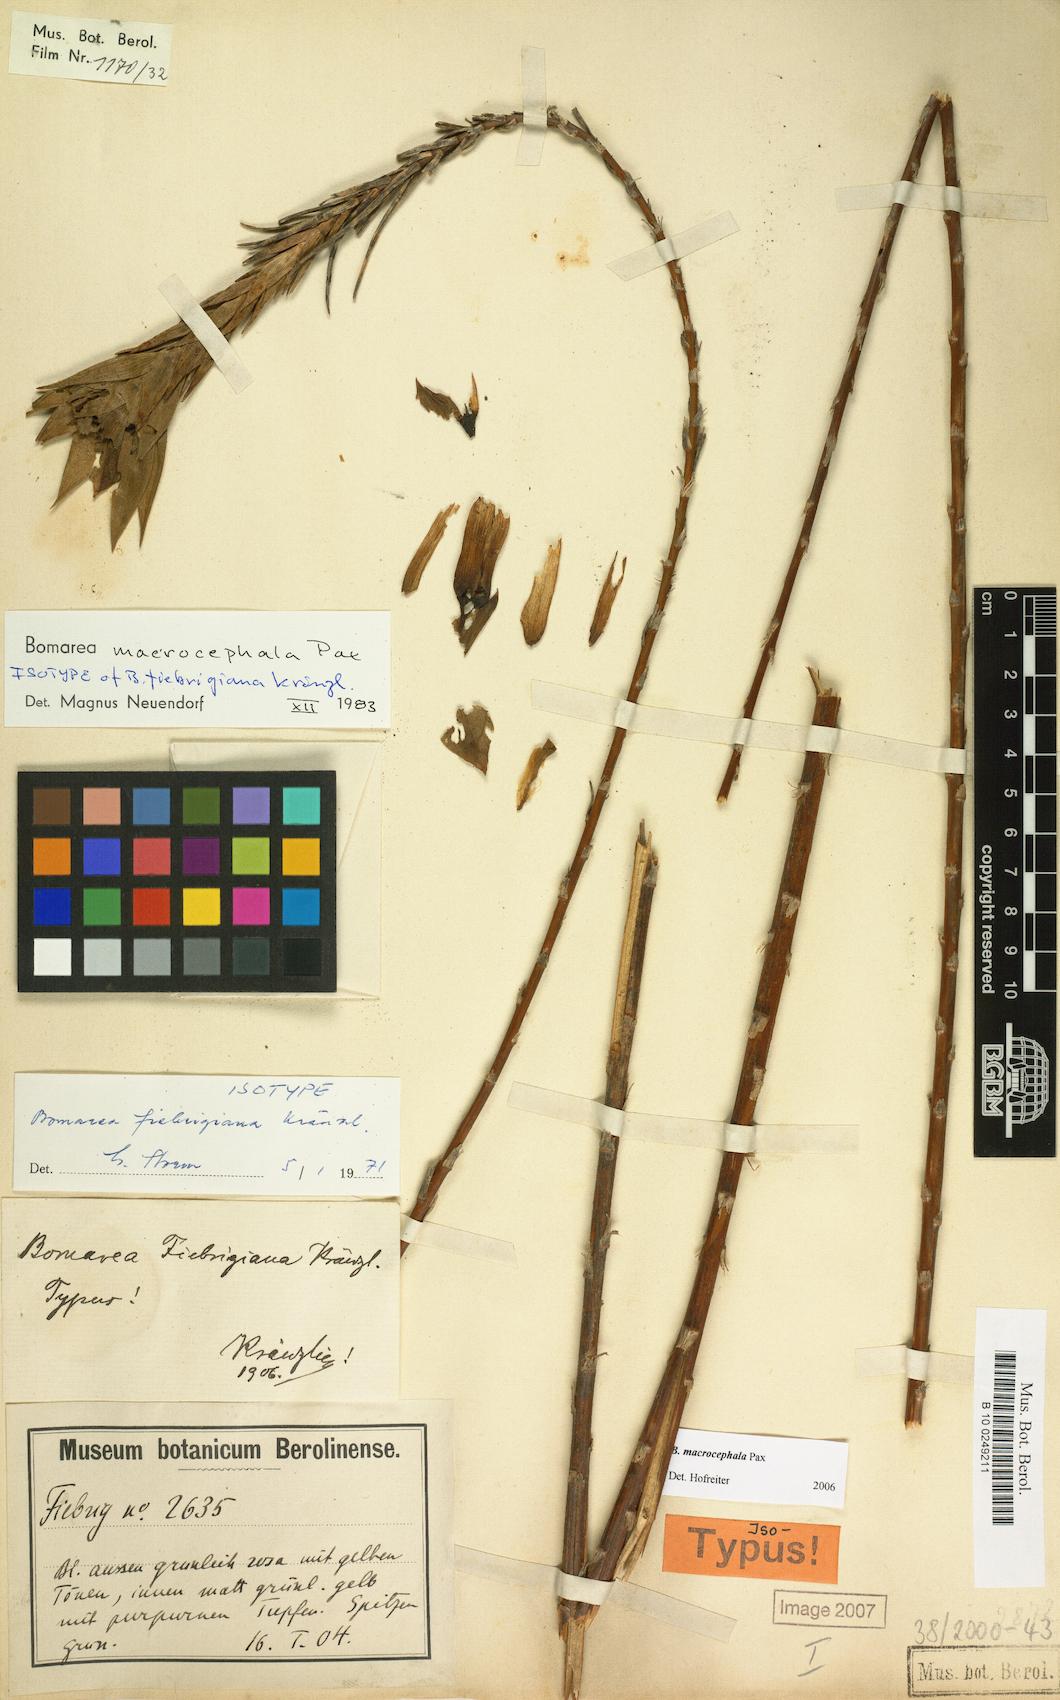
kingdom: Plantae
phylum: Tracheophyta
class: Liliopsida
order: Liliales
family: Alstroemeriaceae
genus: Bomarea
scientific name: Bomarea macrocephala
